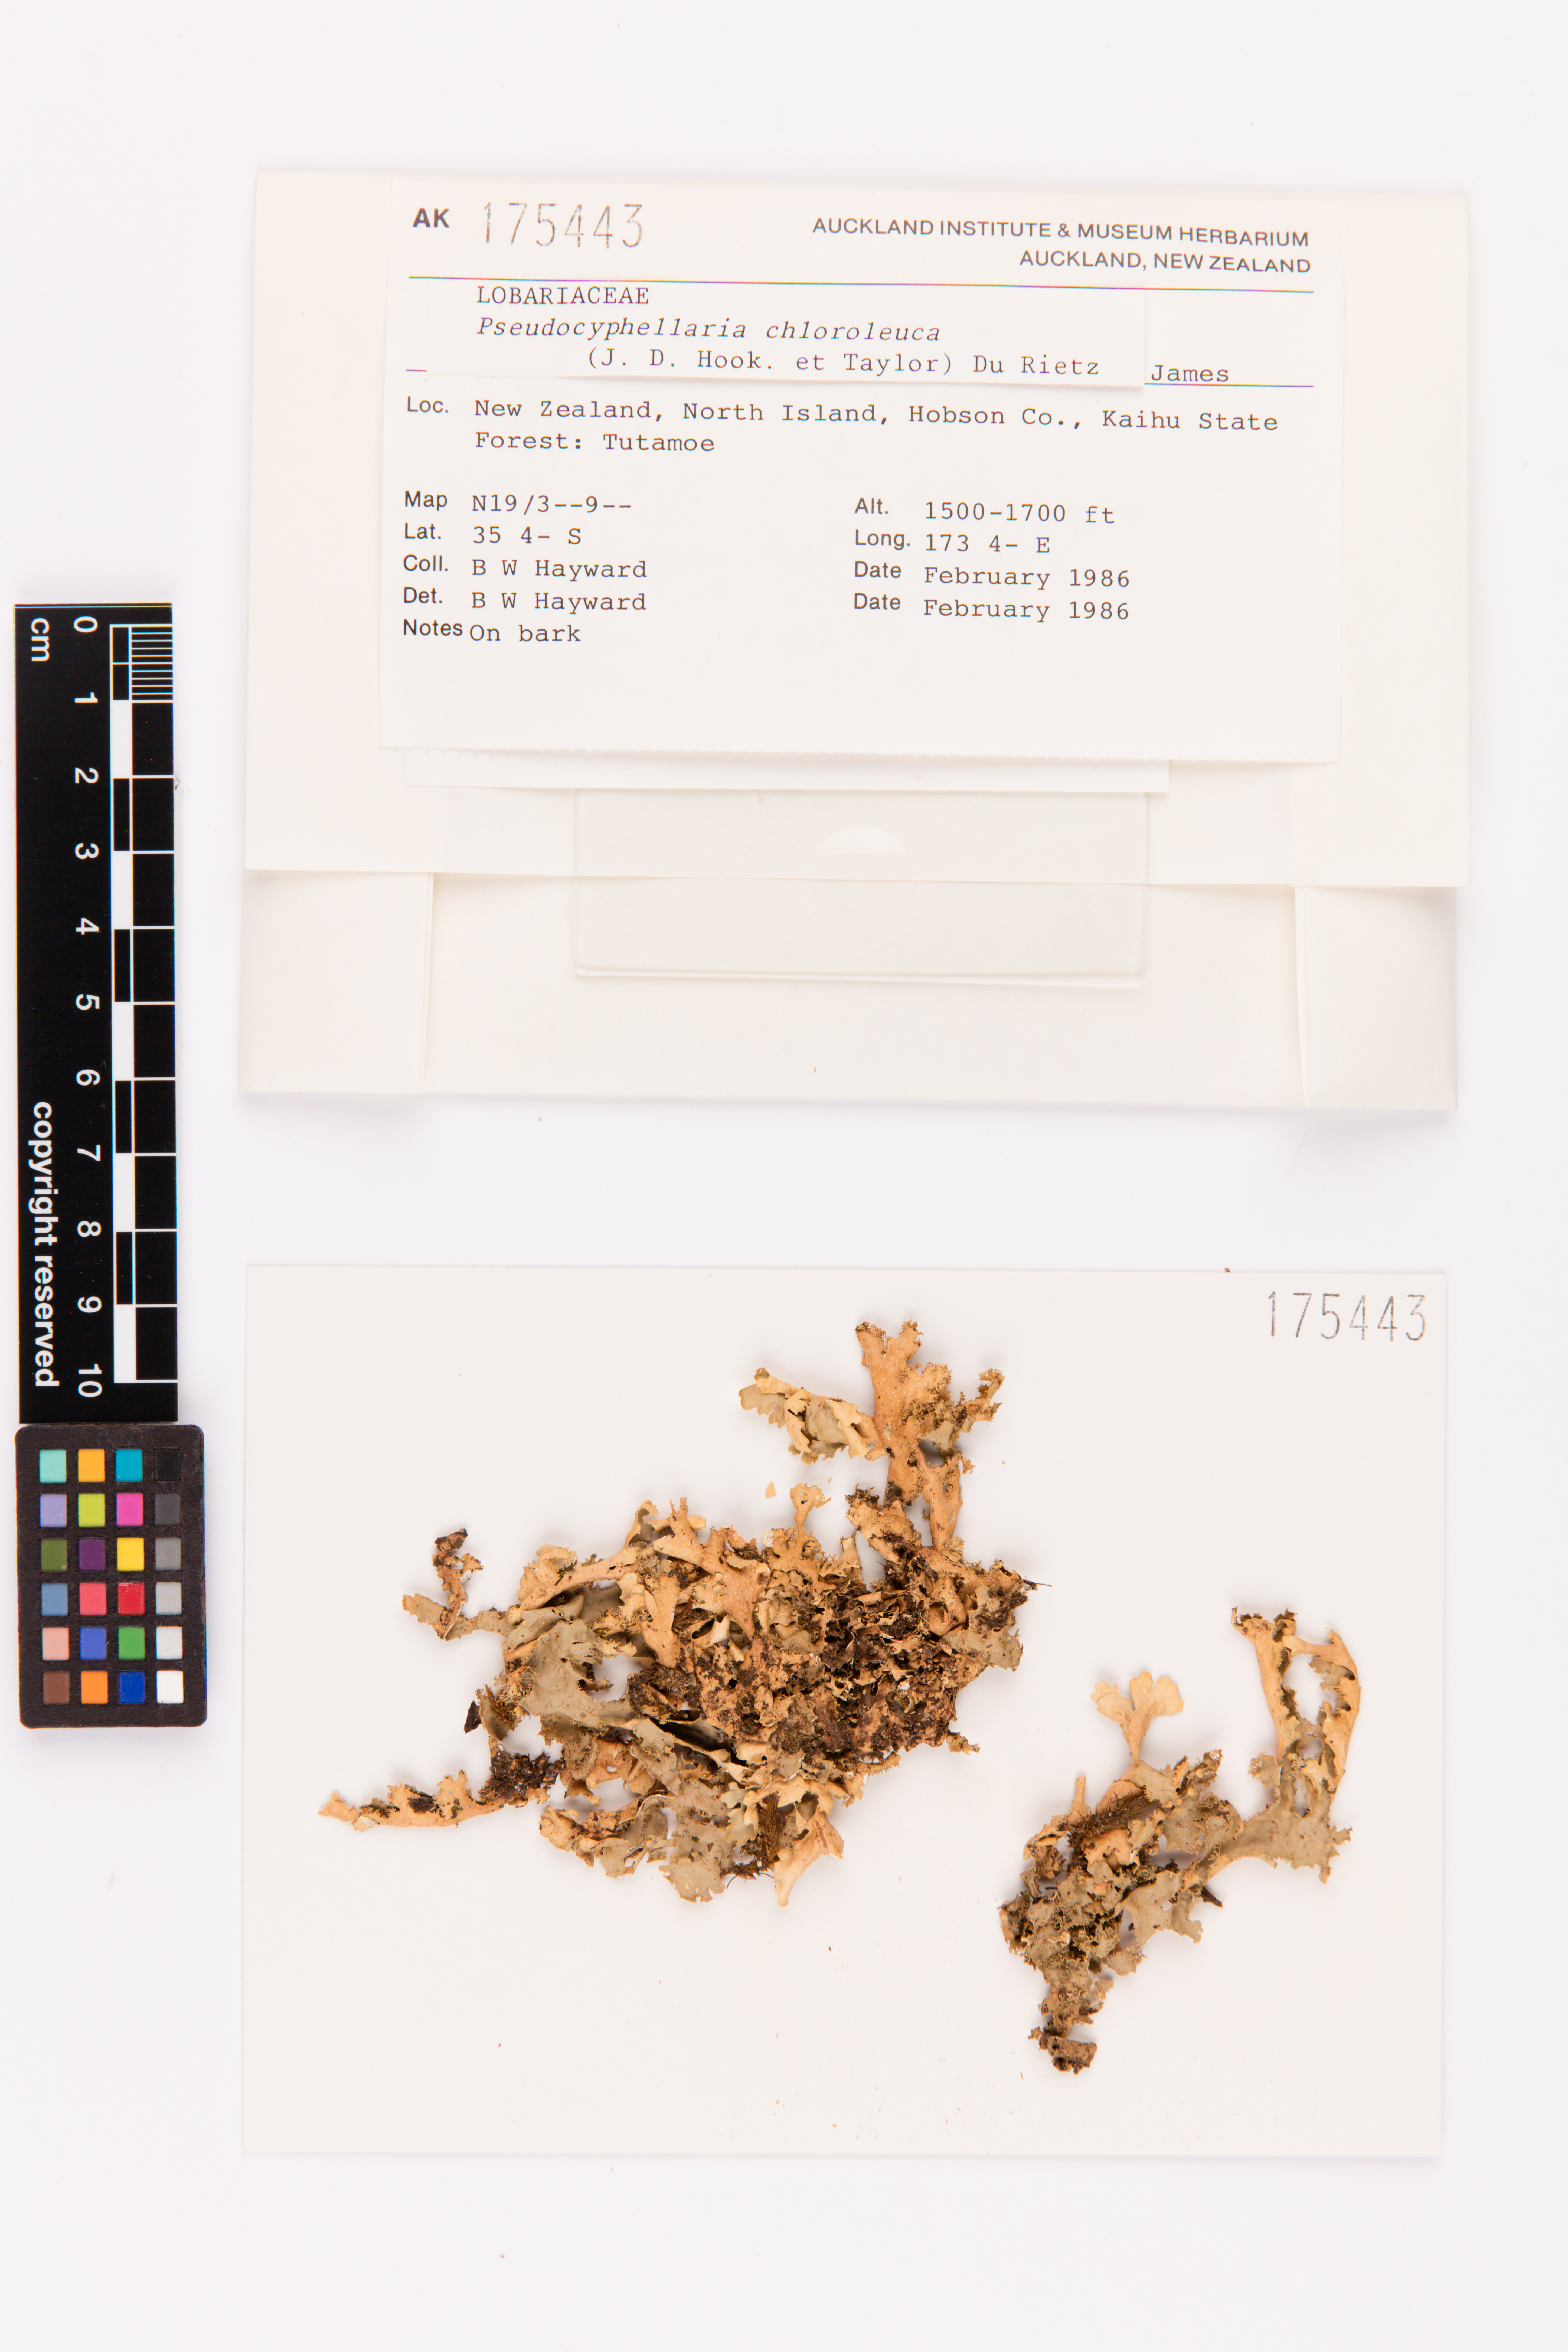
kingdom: Fungi
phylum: Ascomycota
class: Lecanoromycetes
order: Peltigerales
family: Lobariaceae
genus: Pseudocyphellaria
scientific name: Pseudocyphellaria chloroleuca
